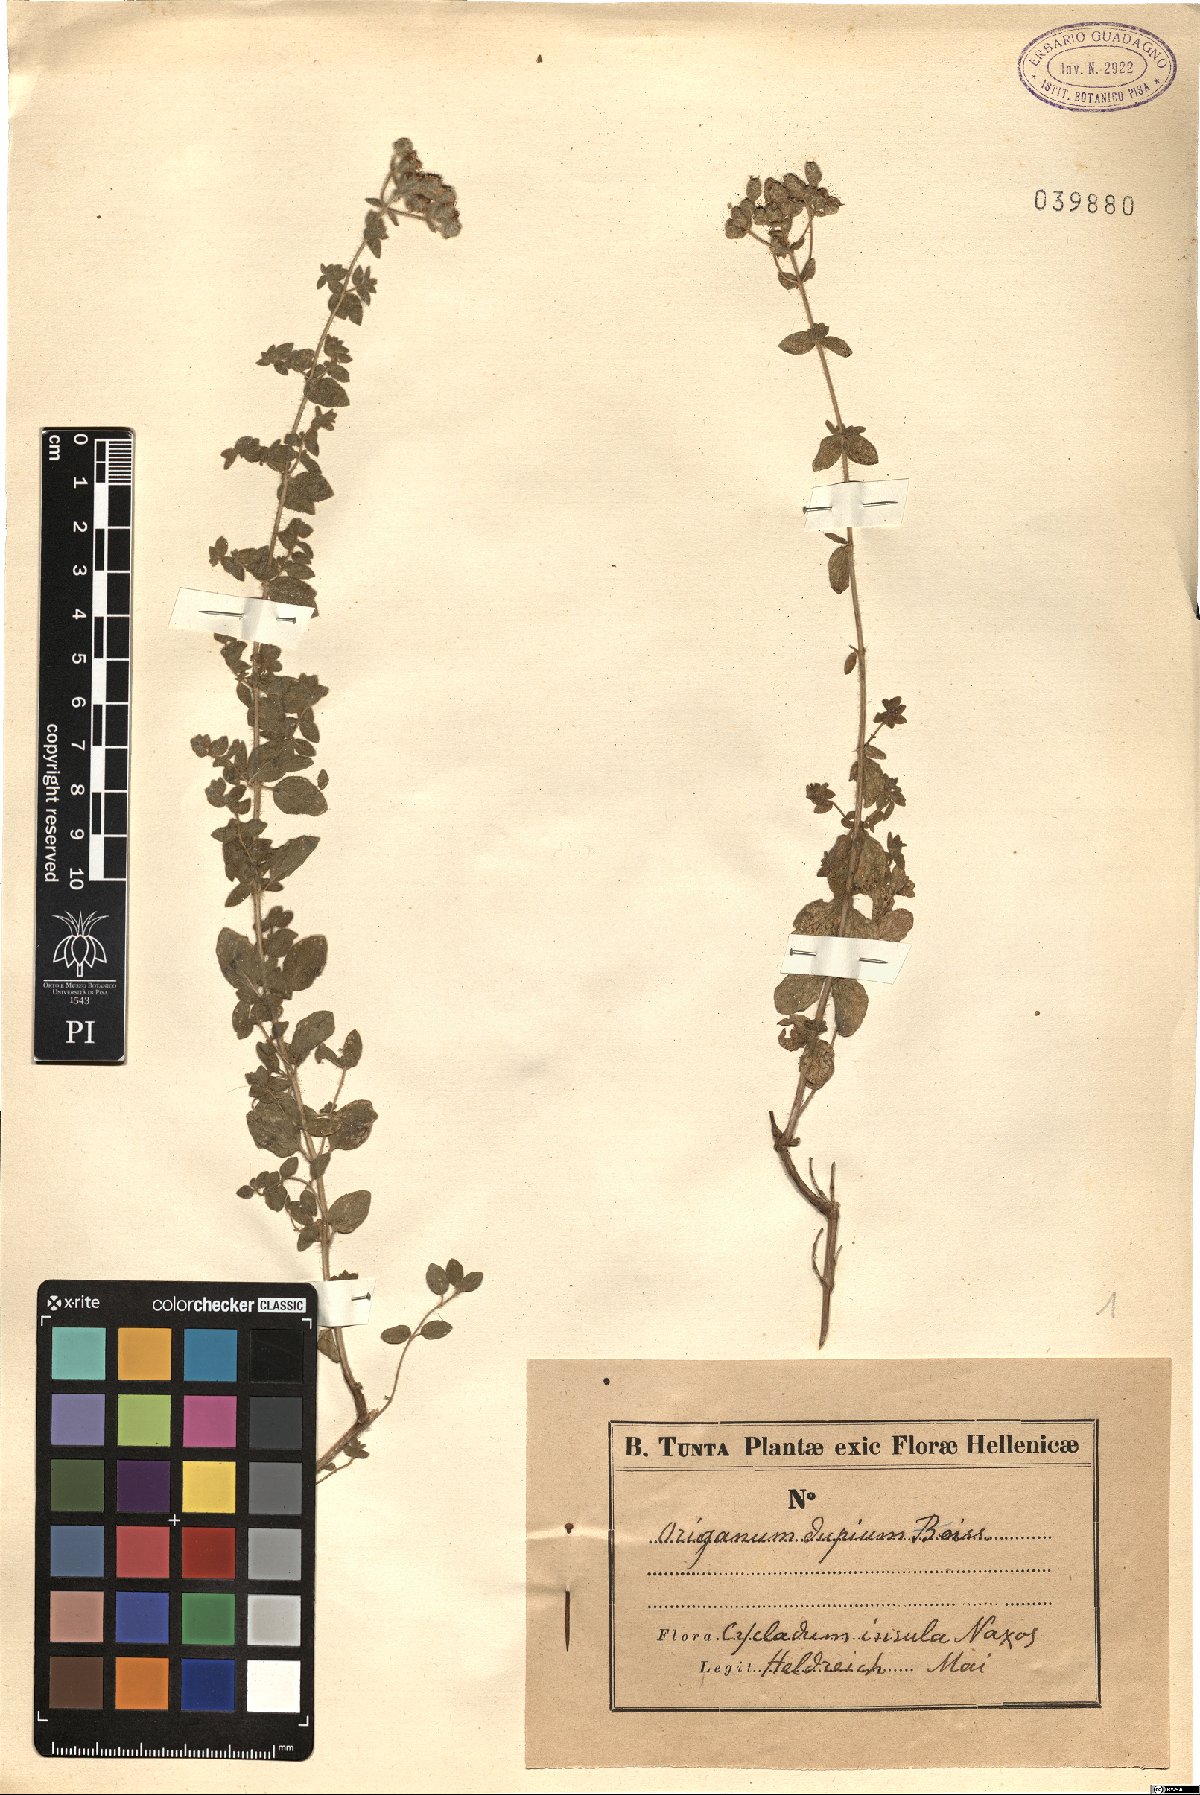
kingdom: Plantae
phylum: Tracheophyta
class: Magnoliopsida
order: Lamiales
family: Lamiaceae
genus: Origanum
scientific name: Origanum majorana
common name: Sweet marjoram
